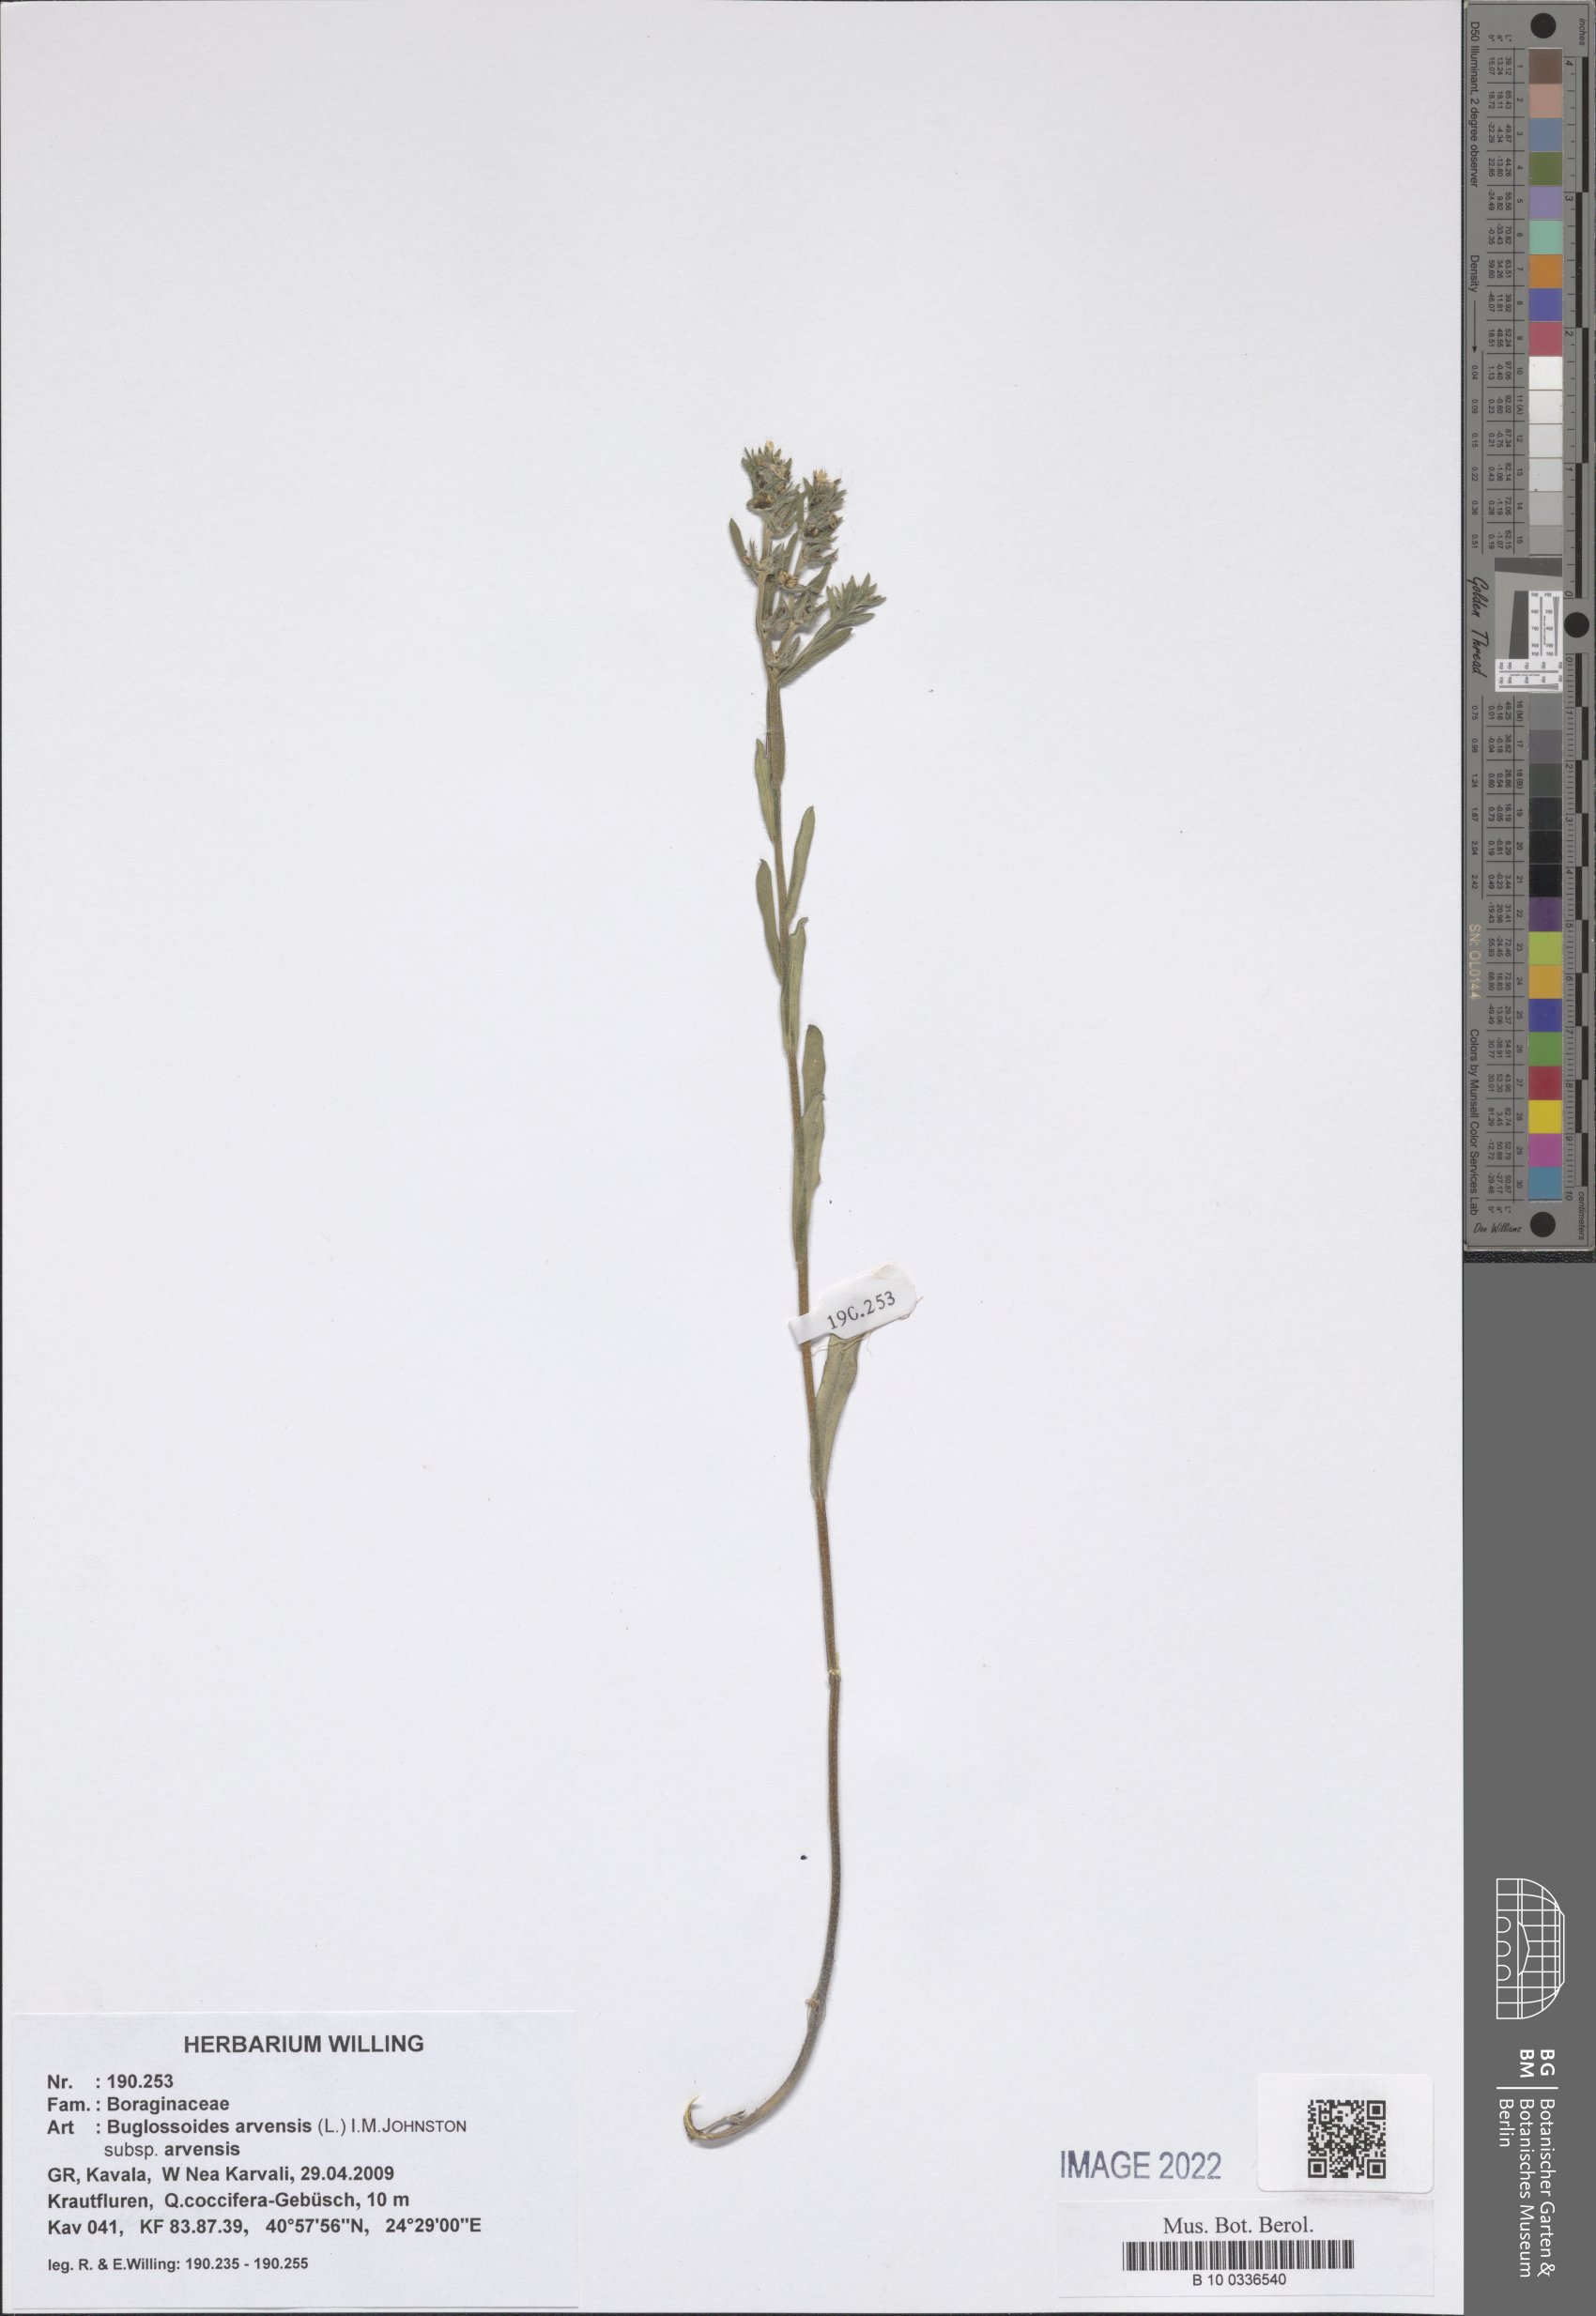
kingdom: Plantae
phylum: Tracheophyta
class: Magnoliopsida
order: Boraginales
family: Boraginaceae
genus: Buglossoides
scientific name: Buglossoides arvensis
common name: Corn gromwell
